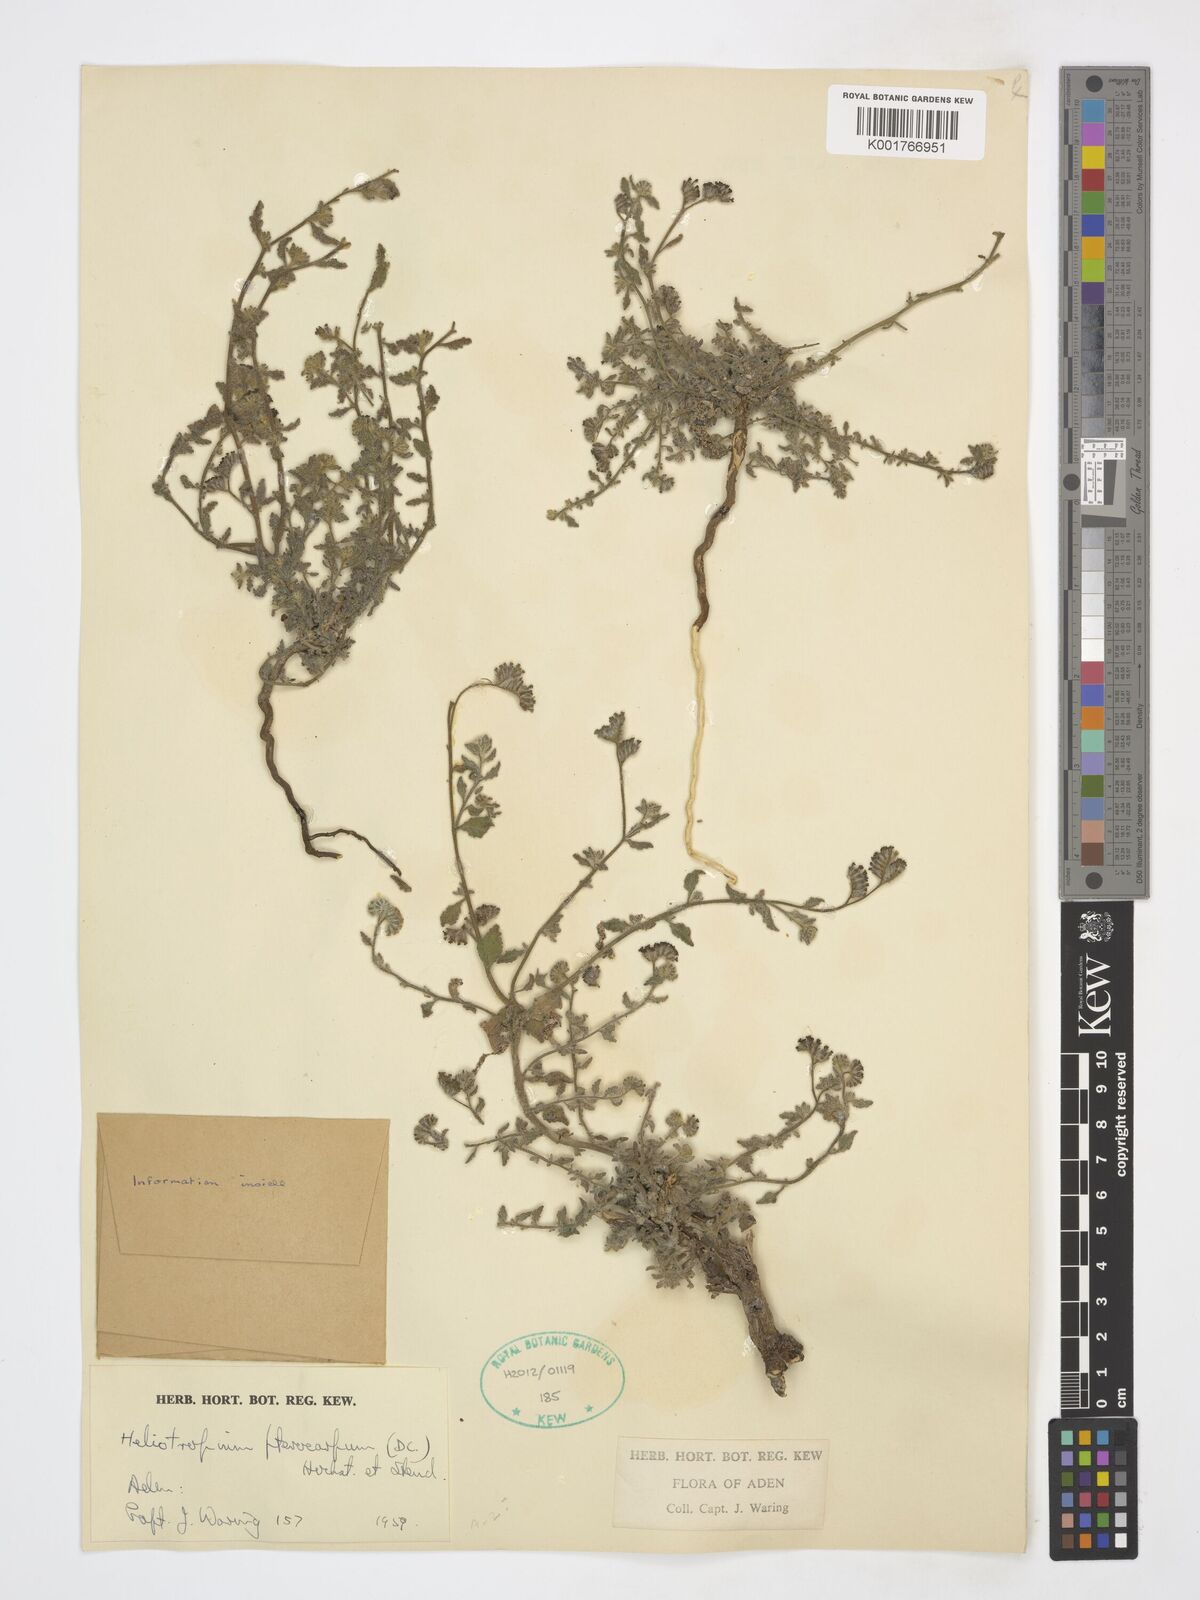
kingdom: Plantae
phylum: Tracheophyta
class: Magnoliopsida
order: Boraginales
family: Heliotropiaceae
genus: Heliotropium
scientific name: Heliotropium pterocarpum
